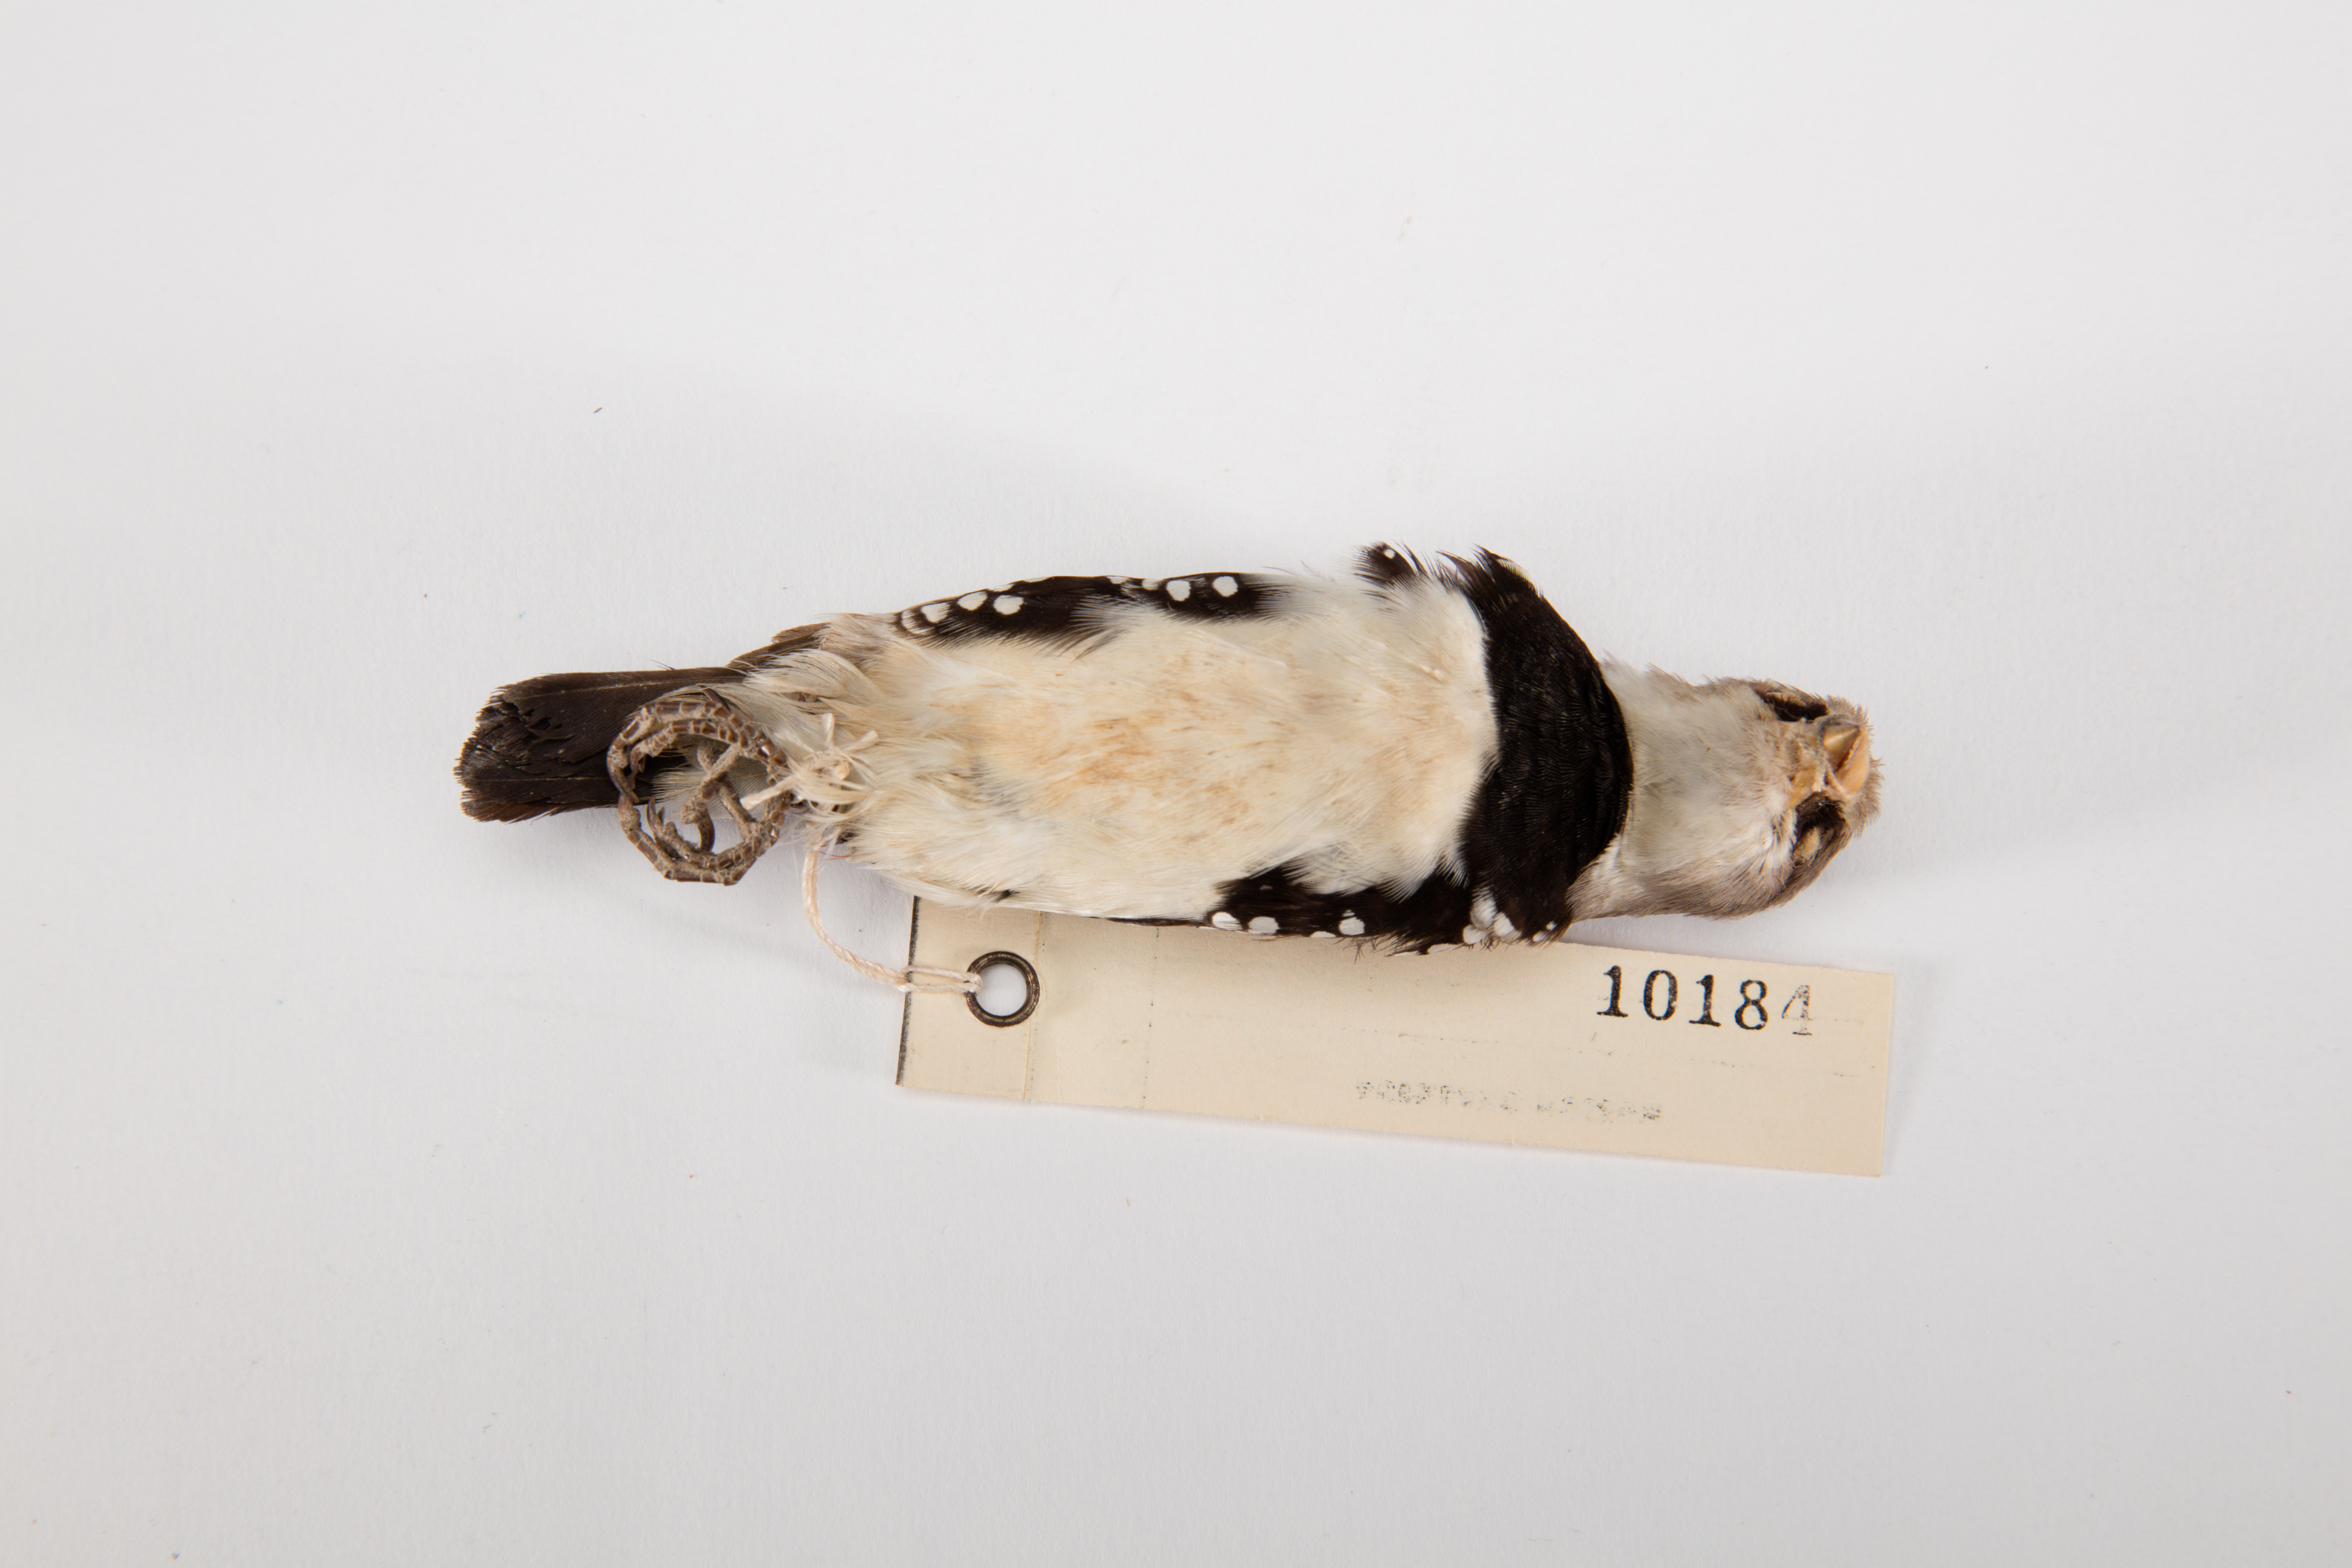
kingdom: Animalia
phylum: Chordata
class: Aves
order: Passeriformes
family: Estrildidae
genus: Stagonopleura
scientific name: Stagonopleura guttata
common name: Diamond firetail
